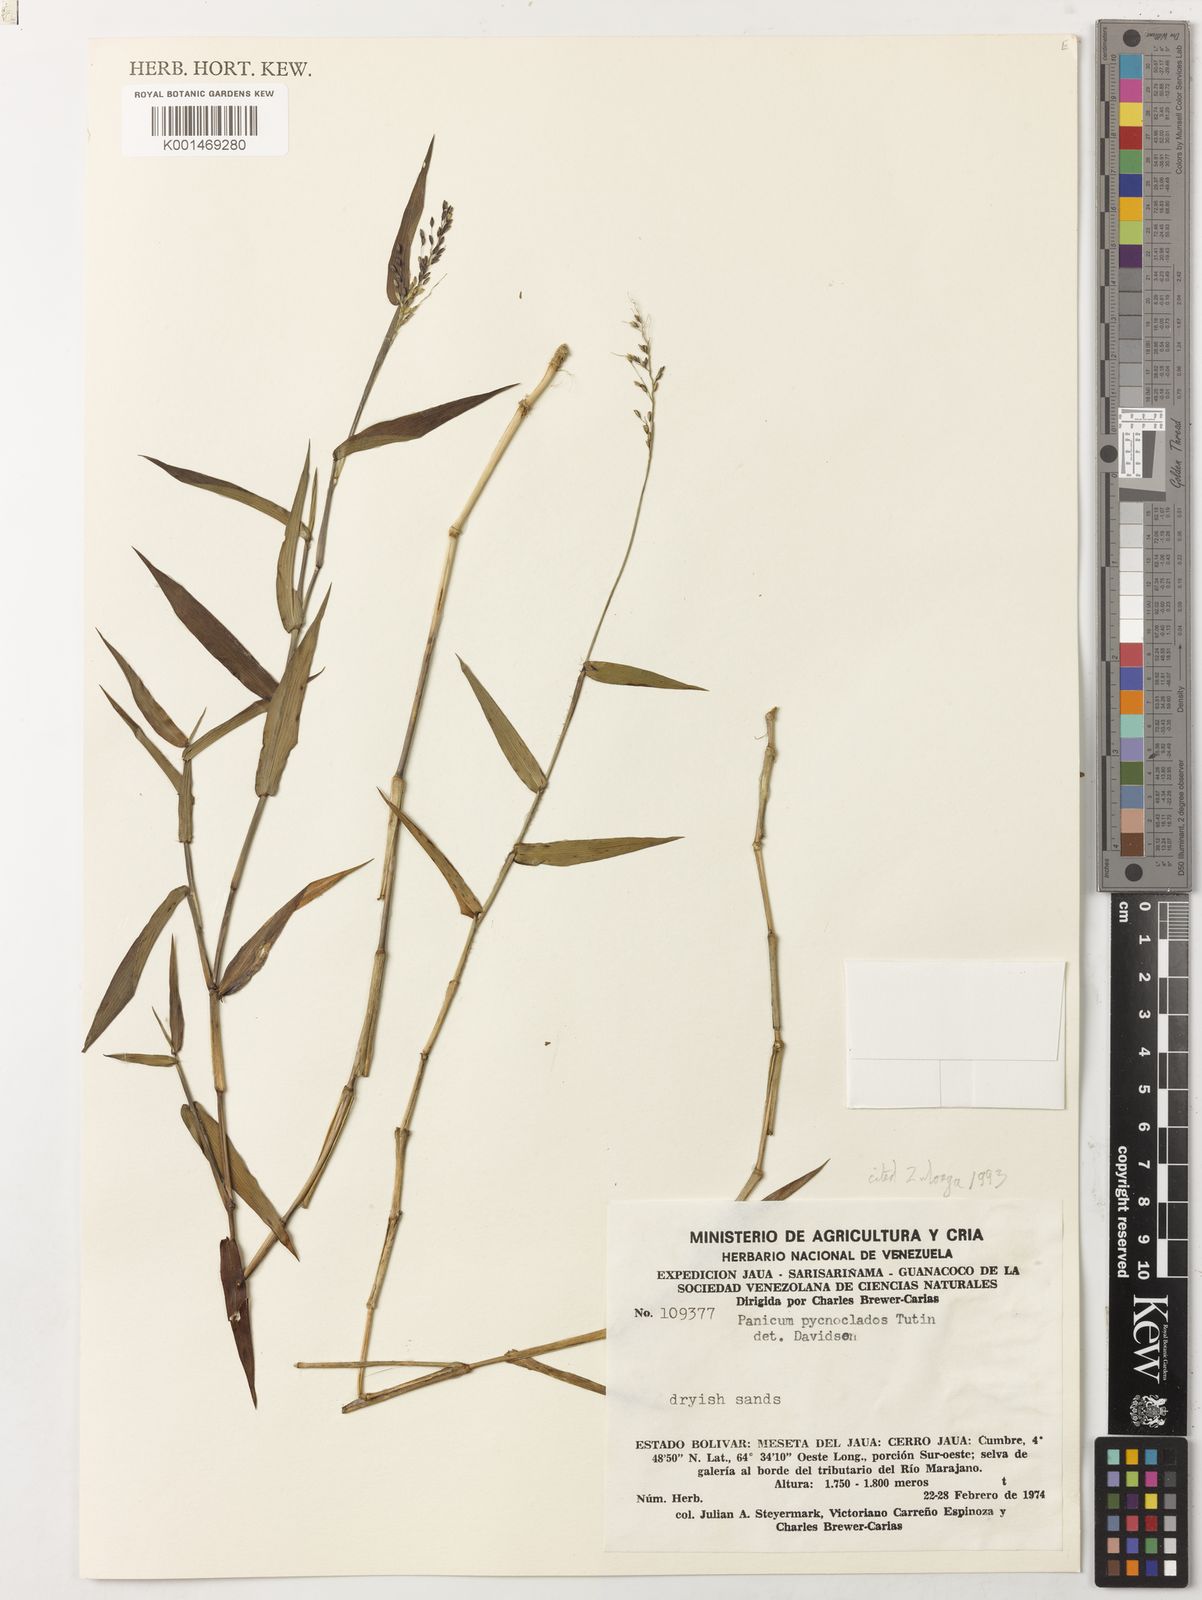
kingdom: Plantae
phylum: Tracheophyta
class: Liliopsida
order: Poales
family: Poaceae
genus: Dichanthelium
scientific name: Dichanthelium pycnoclados
